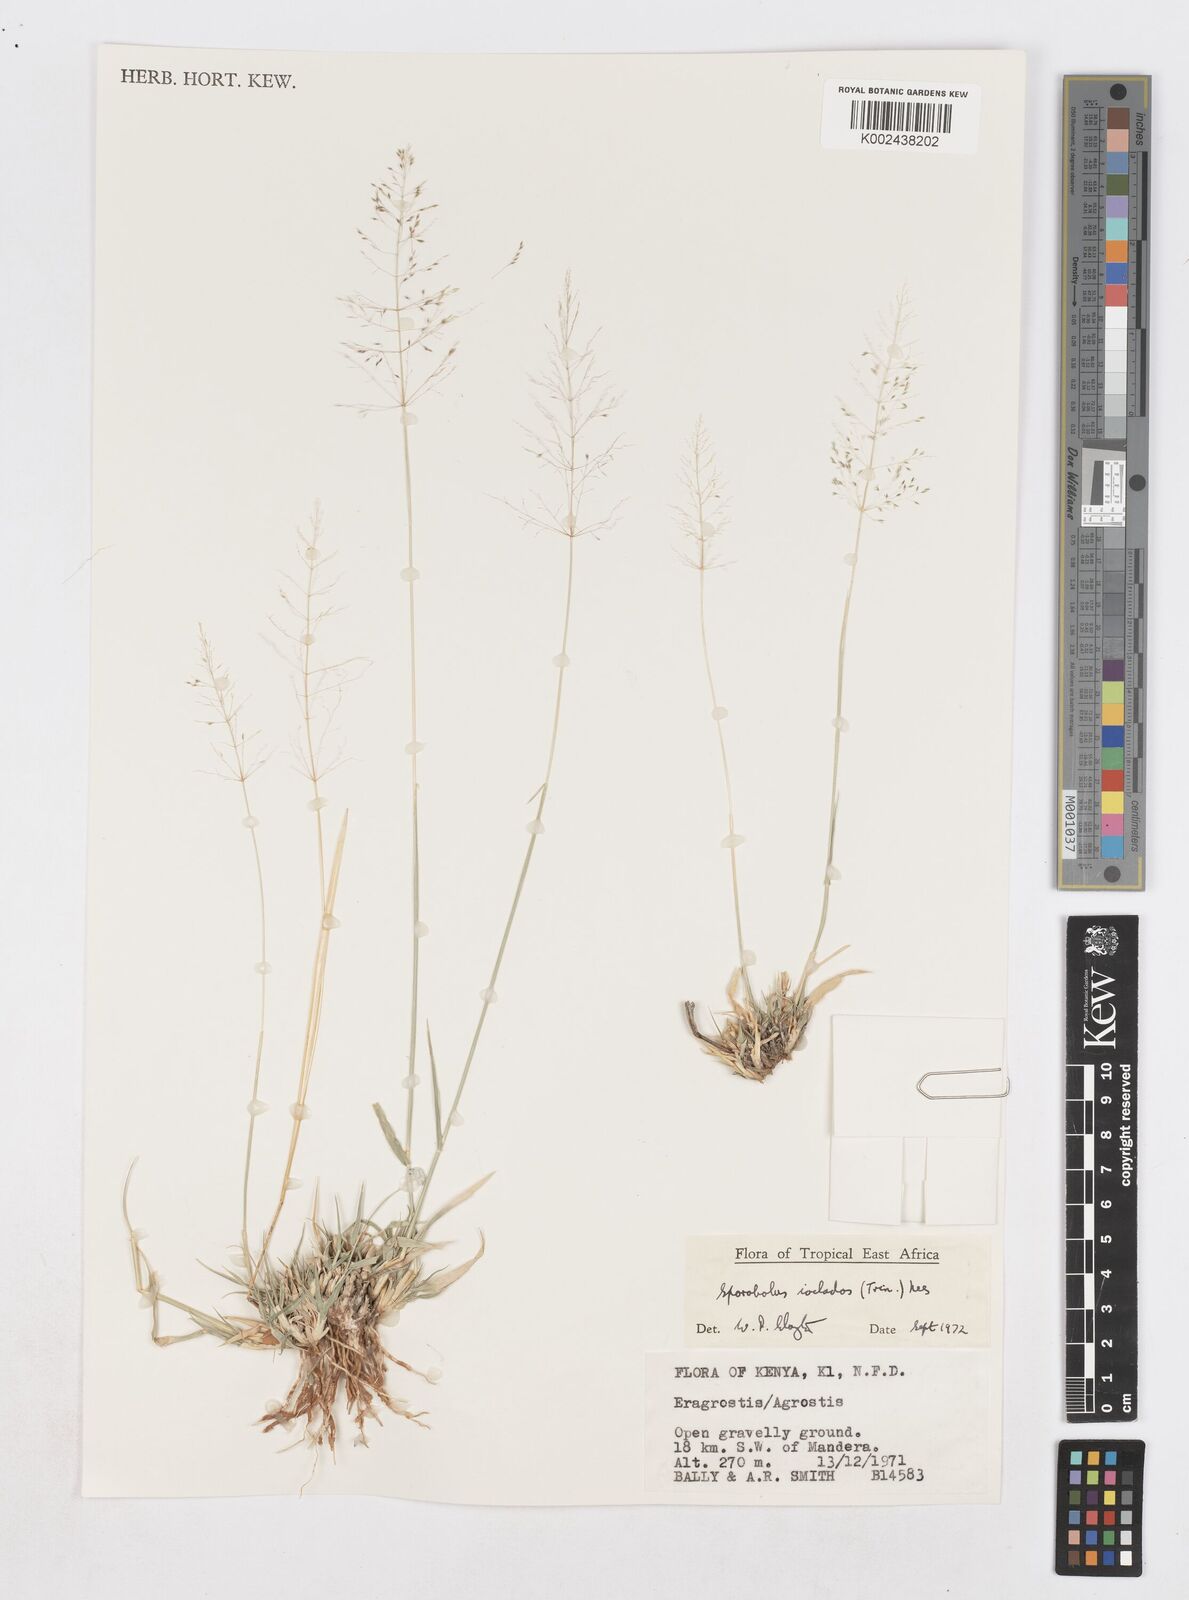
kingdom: Plantae
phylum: Tracheophyta
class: Liliopsida
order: Poales
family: Poaceae
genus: Sporobolus
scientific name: Sporobolus ioclados
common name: Pan dropseed
